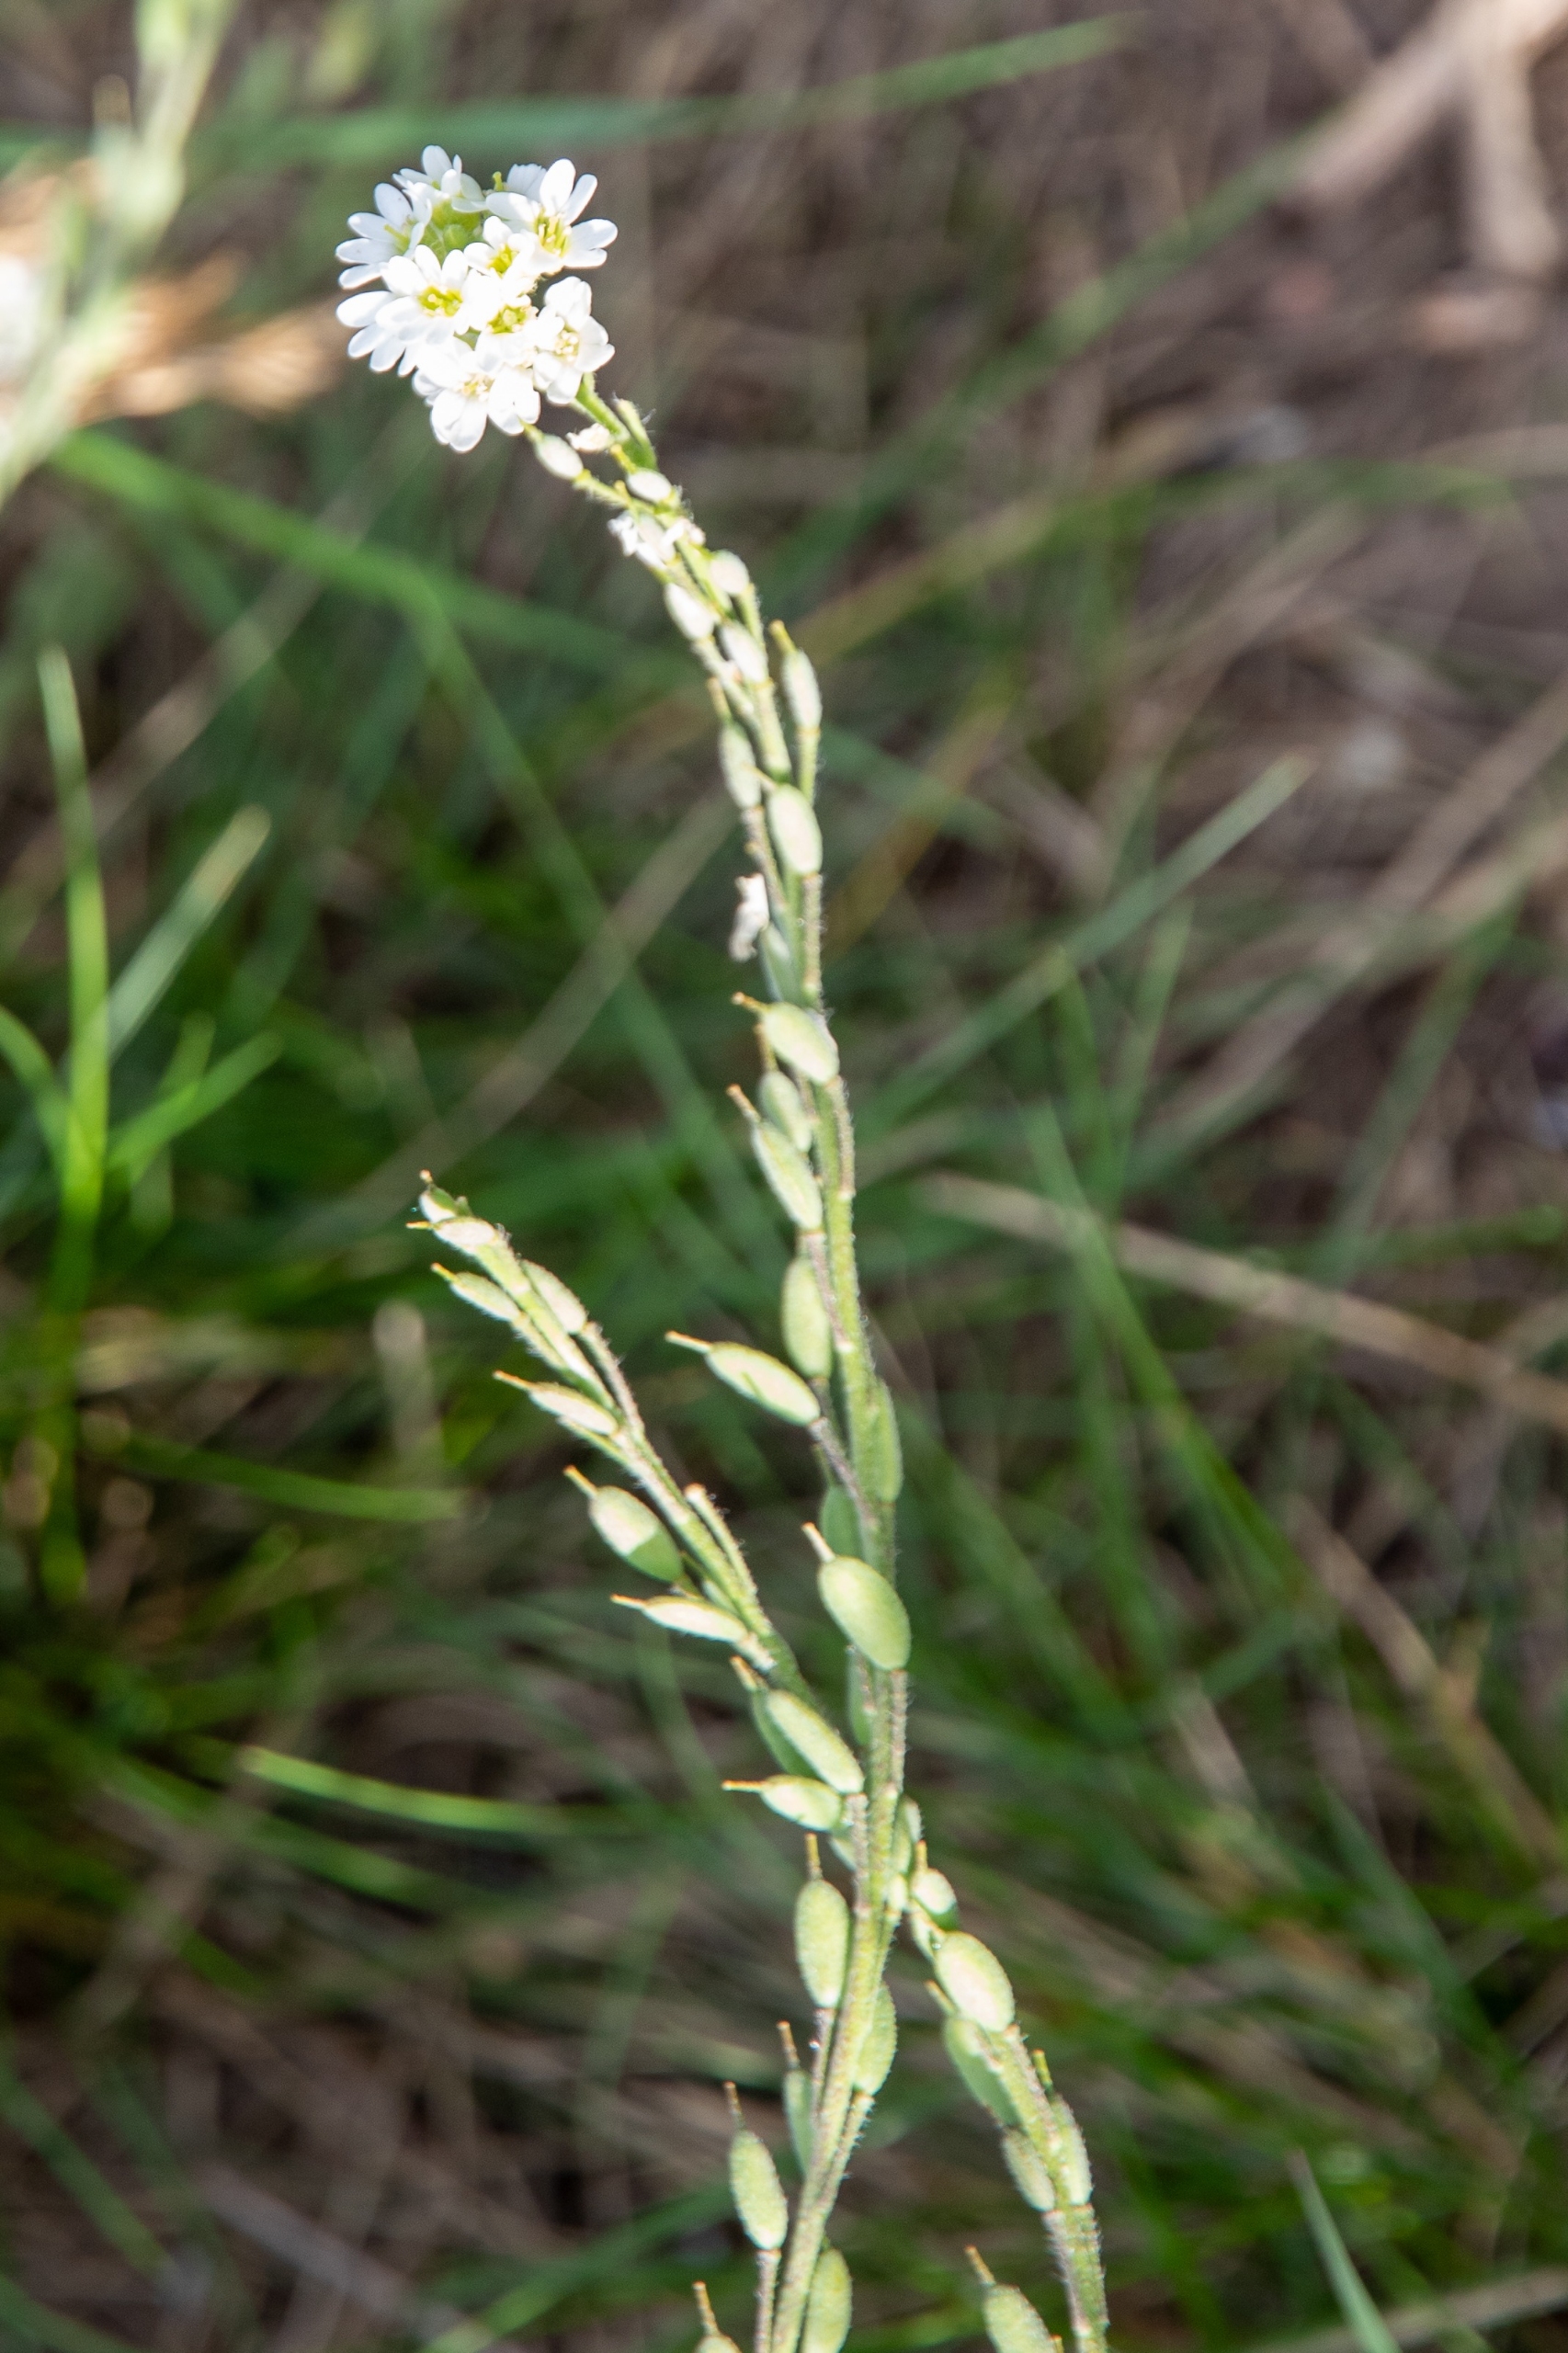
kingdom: Plantae
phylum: Tracheophyta
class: Magnoliopsida
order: Brassicales
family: Brassicaceae
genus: Berteroa
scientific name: Berteroa incana
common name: Kløvplade
